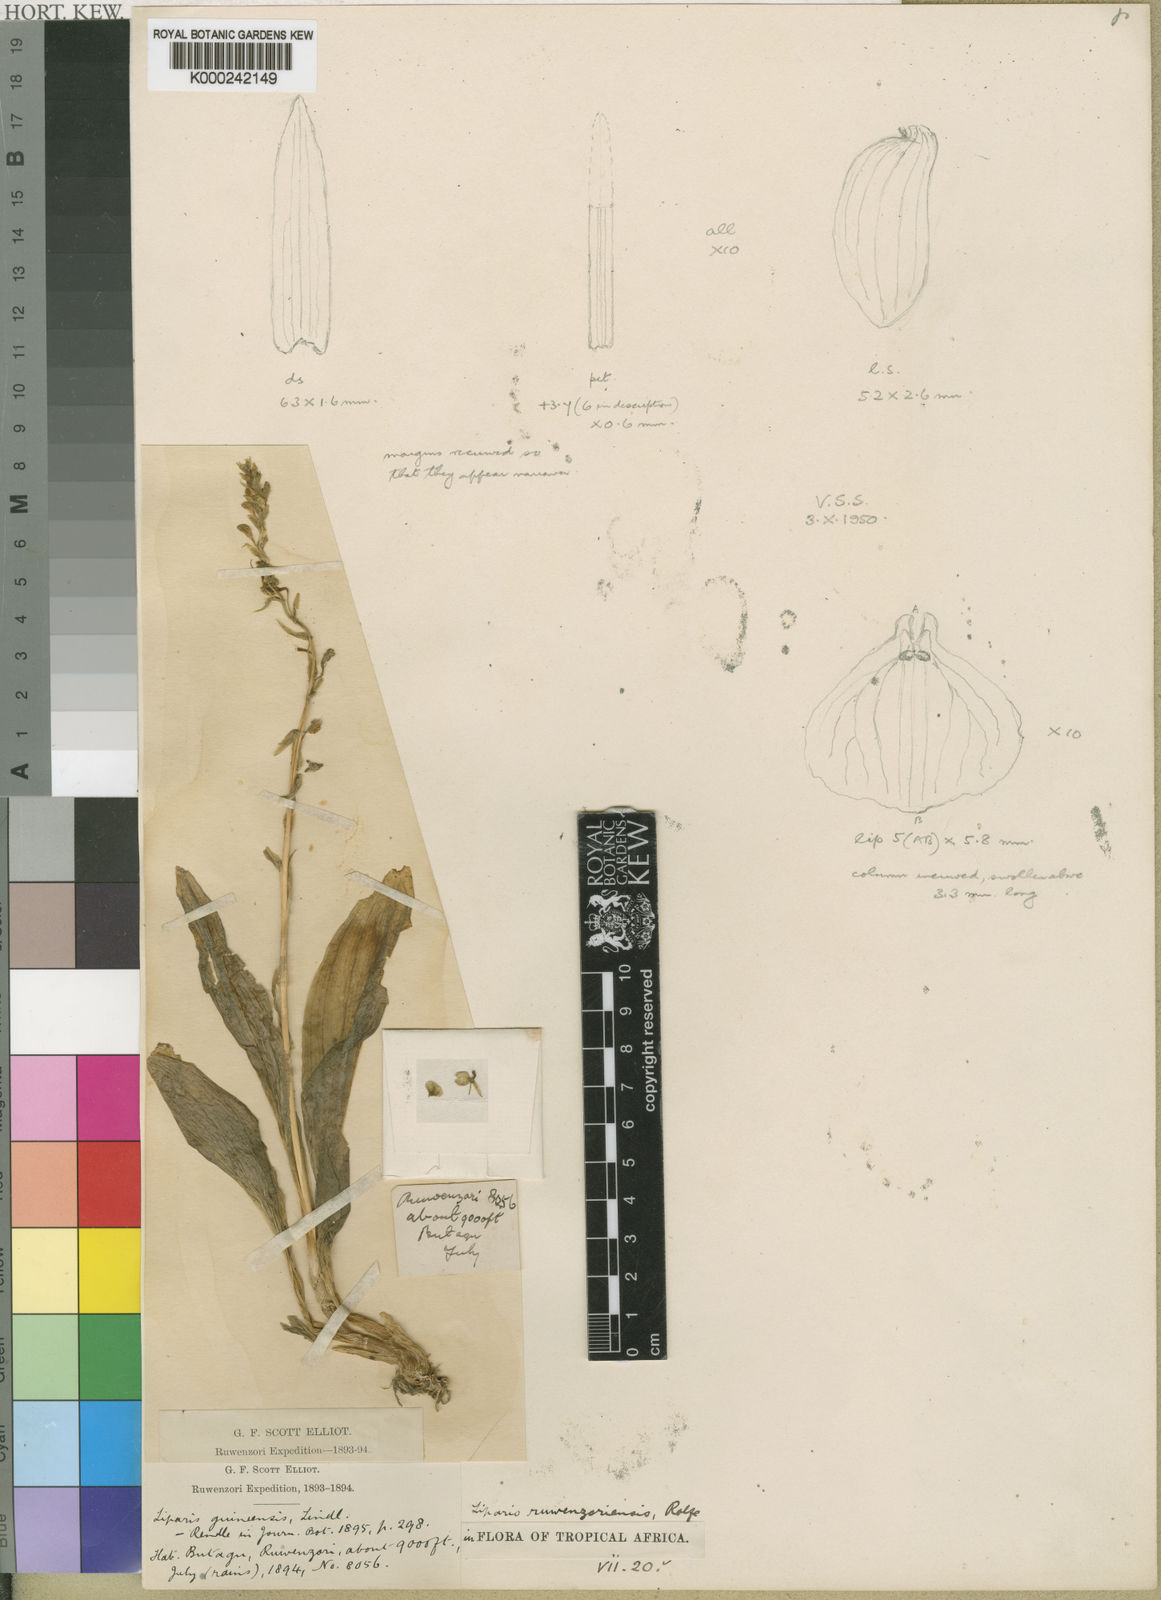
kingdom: Plantae
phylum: Tracheophyta
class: Liliopsida
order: Asparagales
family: Orchidaceae
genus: Liparis
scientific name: Liparis bowkeri
